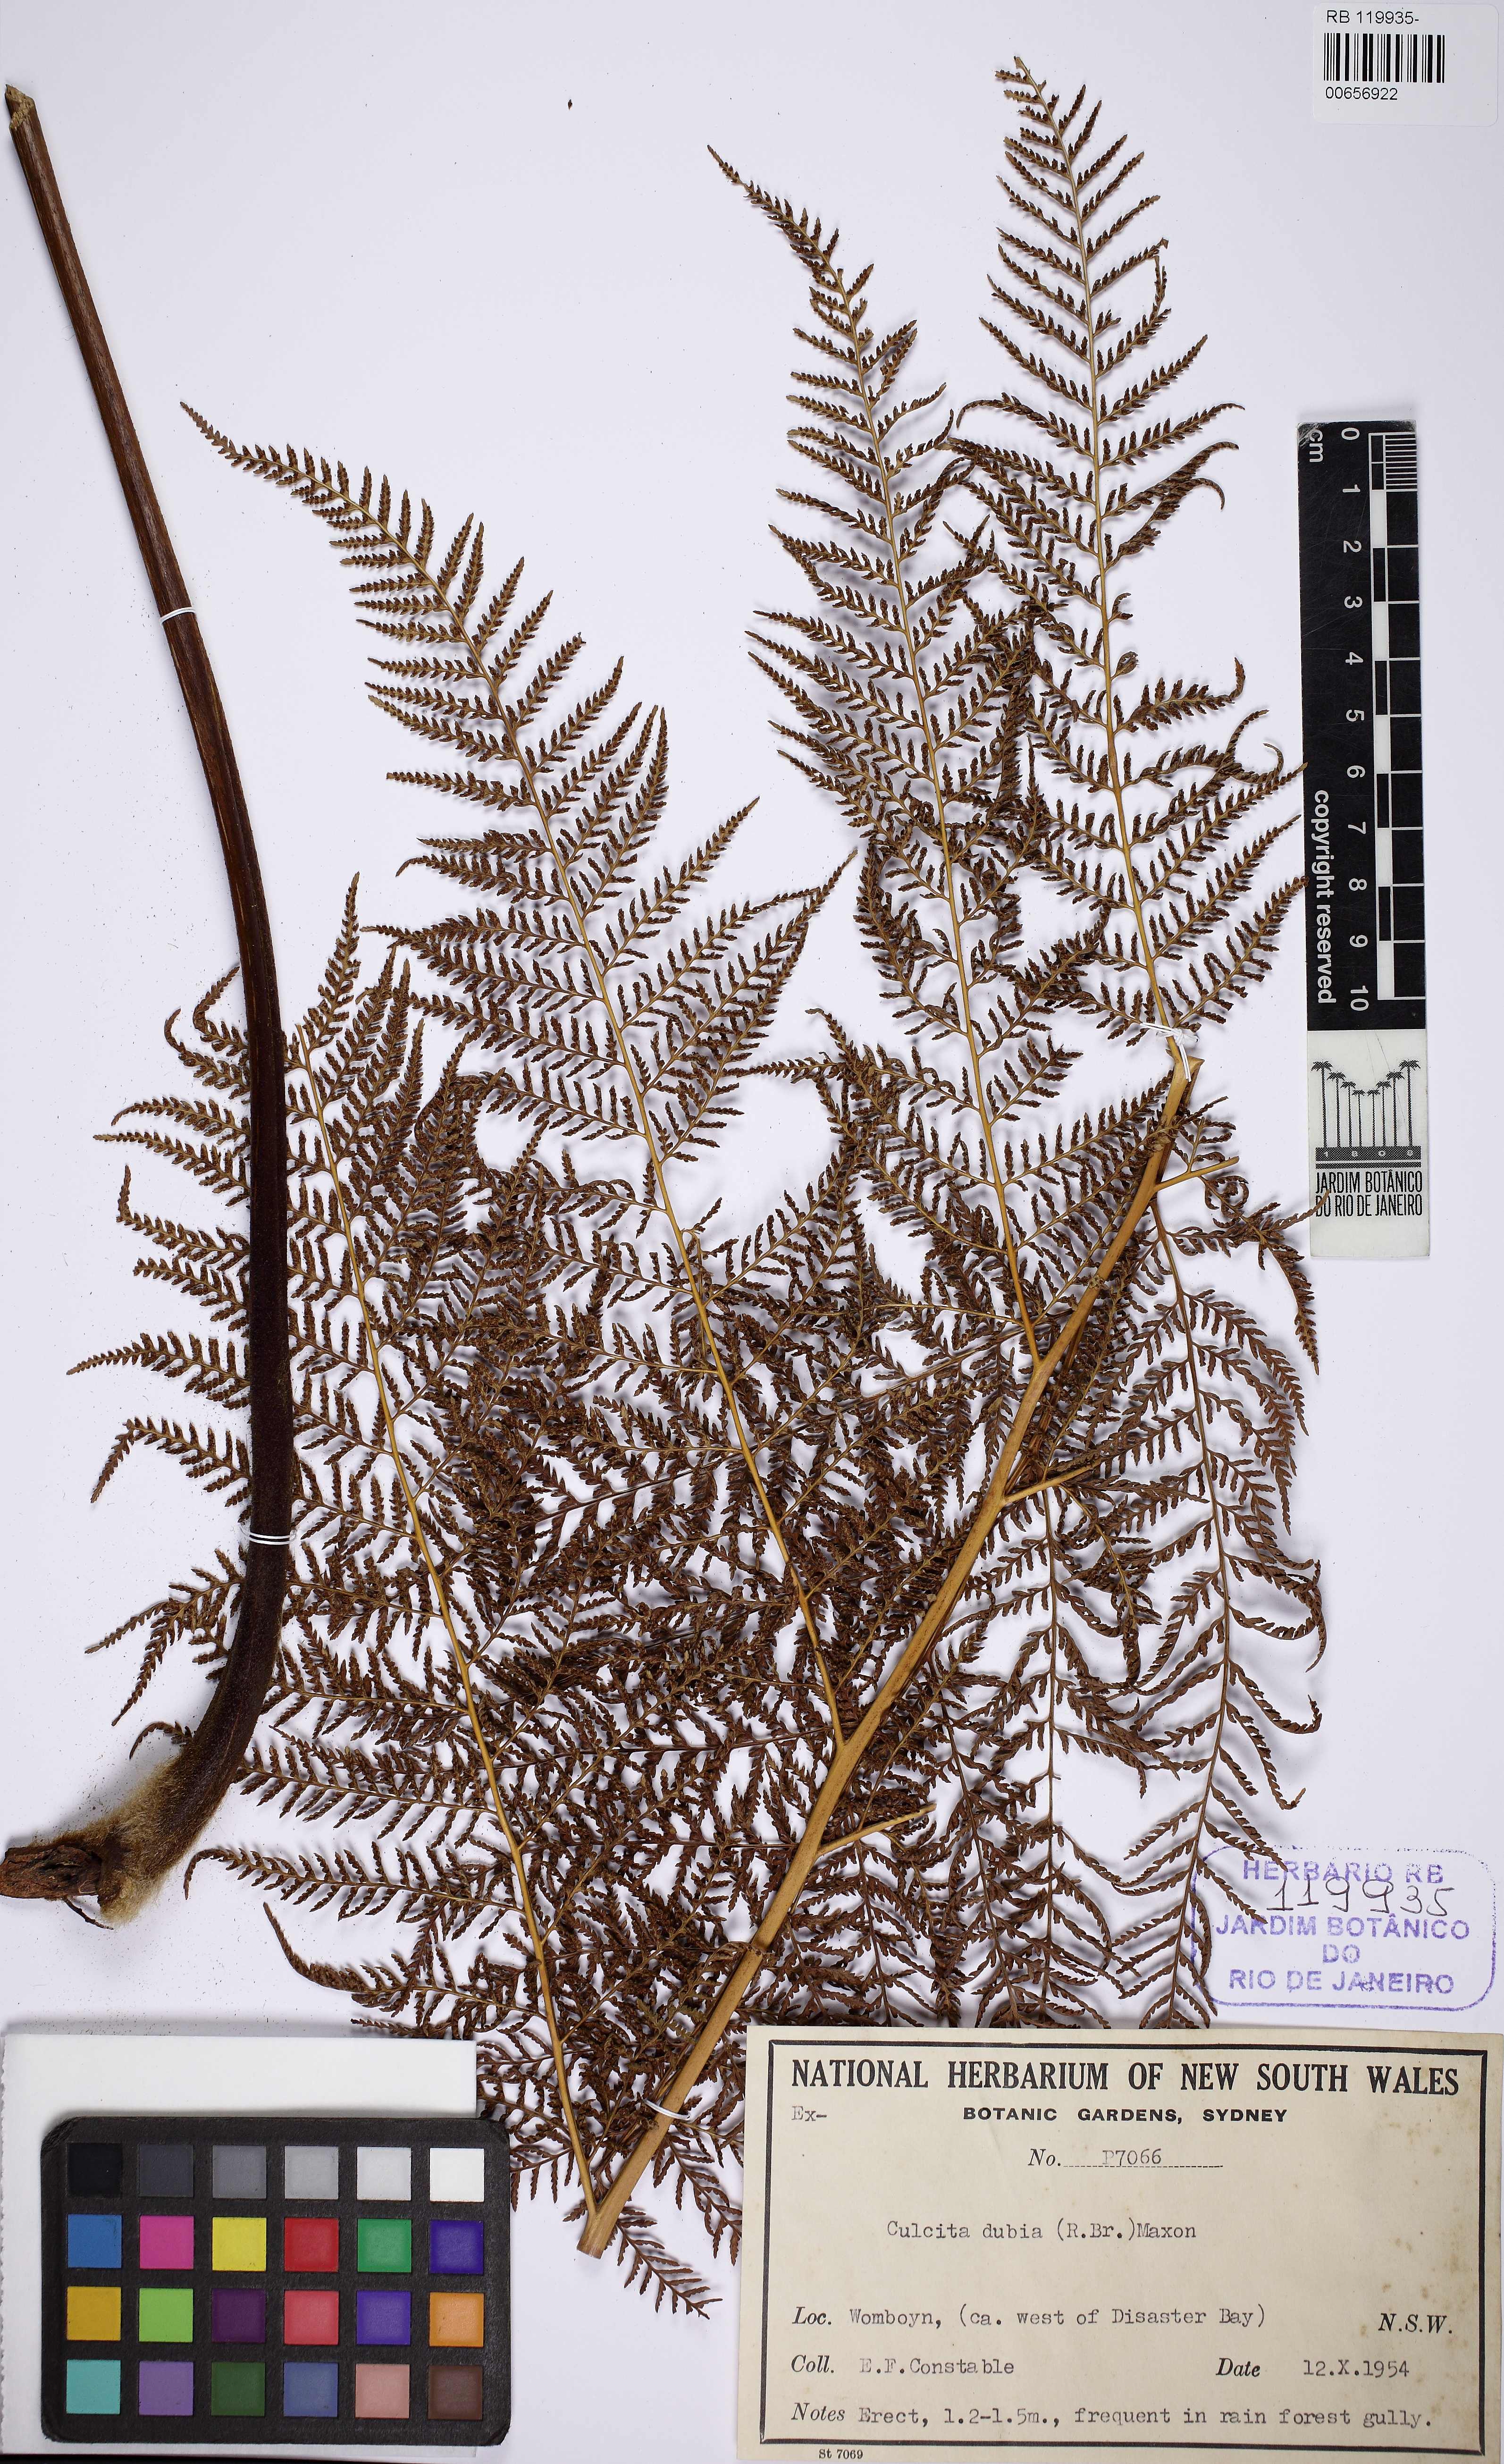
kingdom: Plantae
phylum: Tracheophyta
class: Polypodiopsida
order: Cyatheales
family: Dicksoniaceae
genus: Calochlaena
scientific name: Calochlaena dubia
